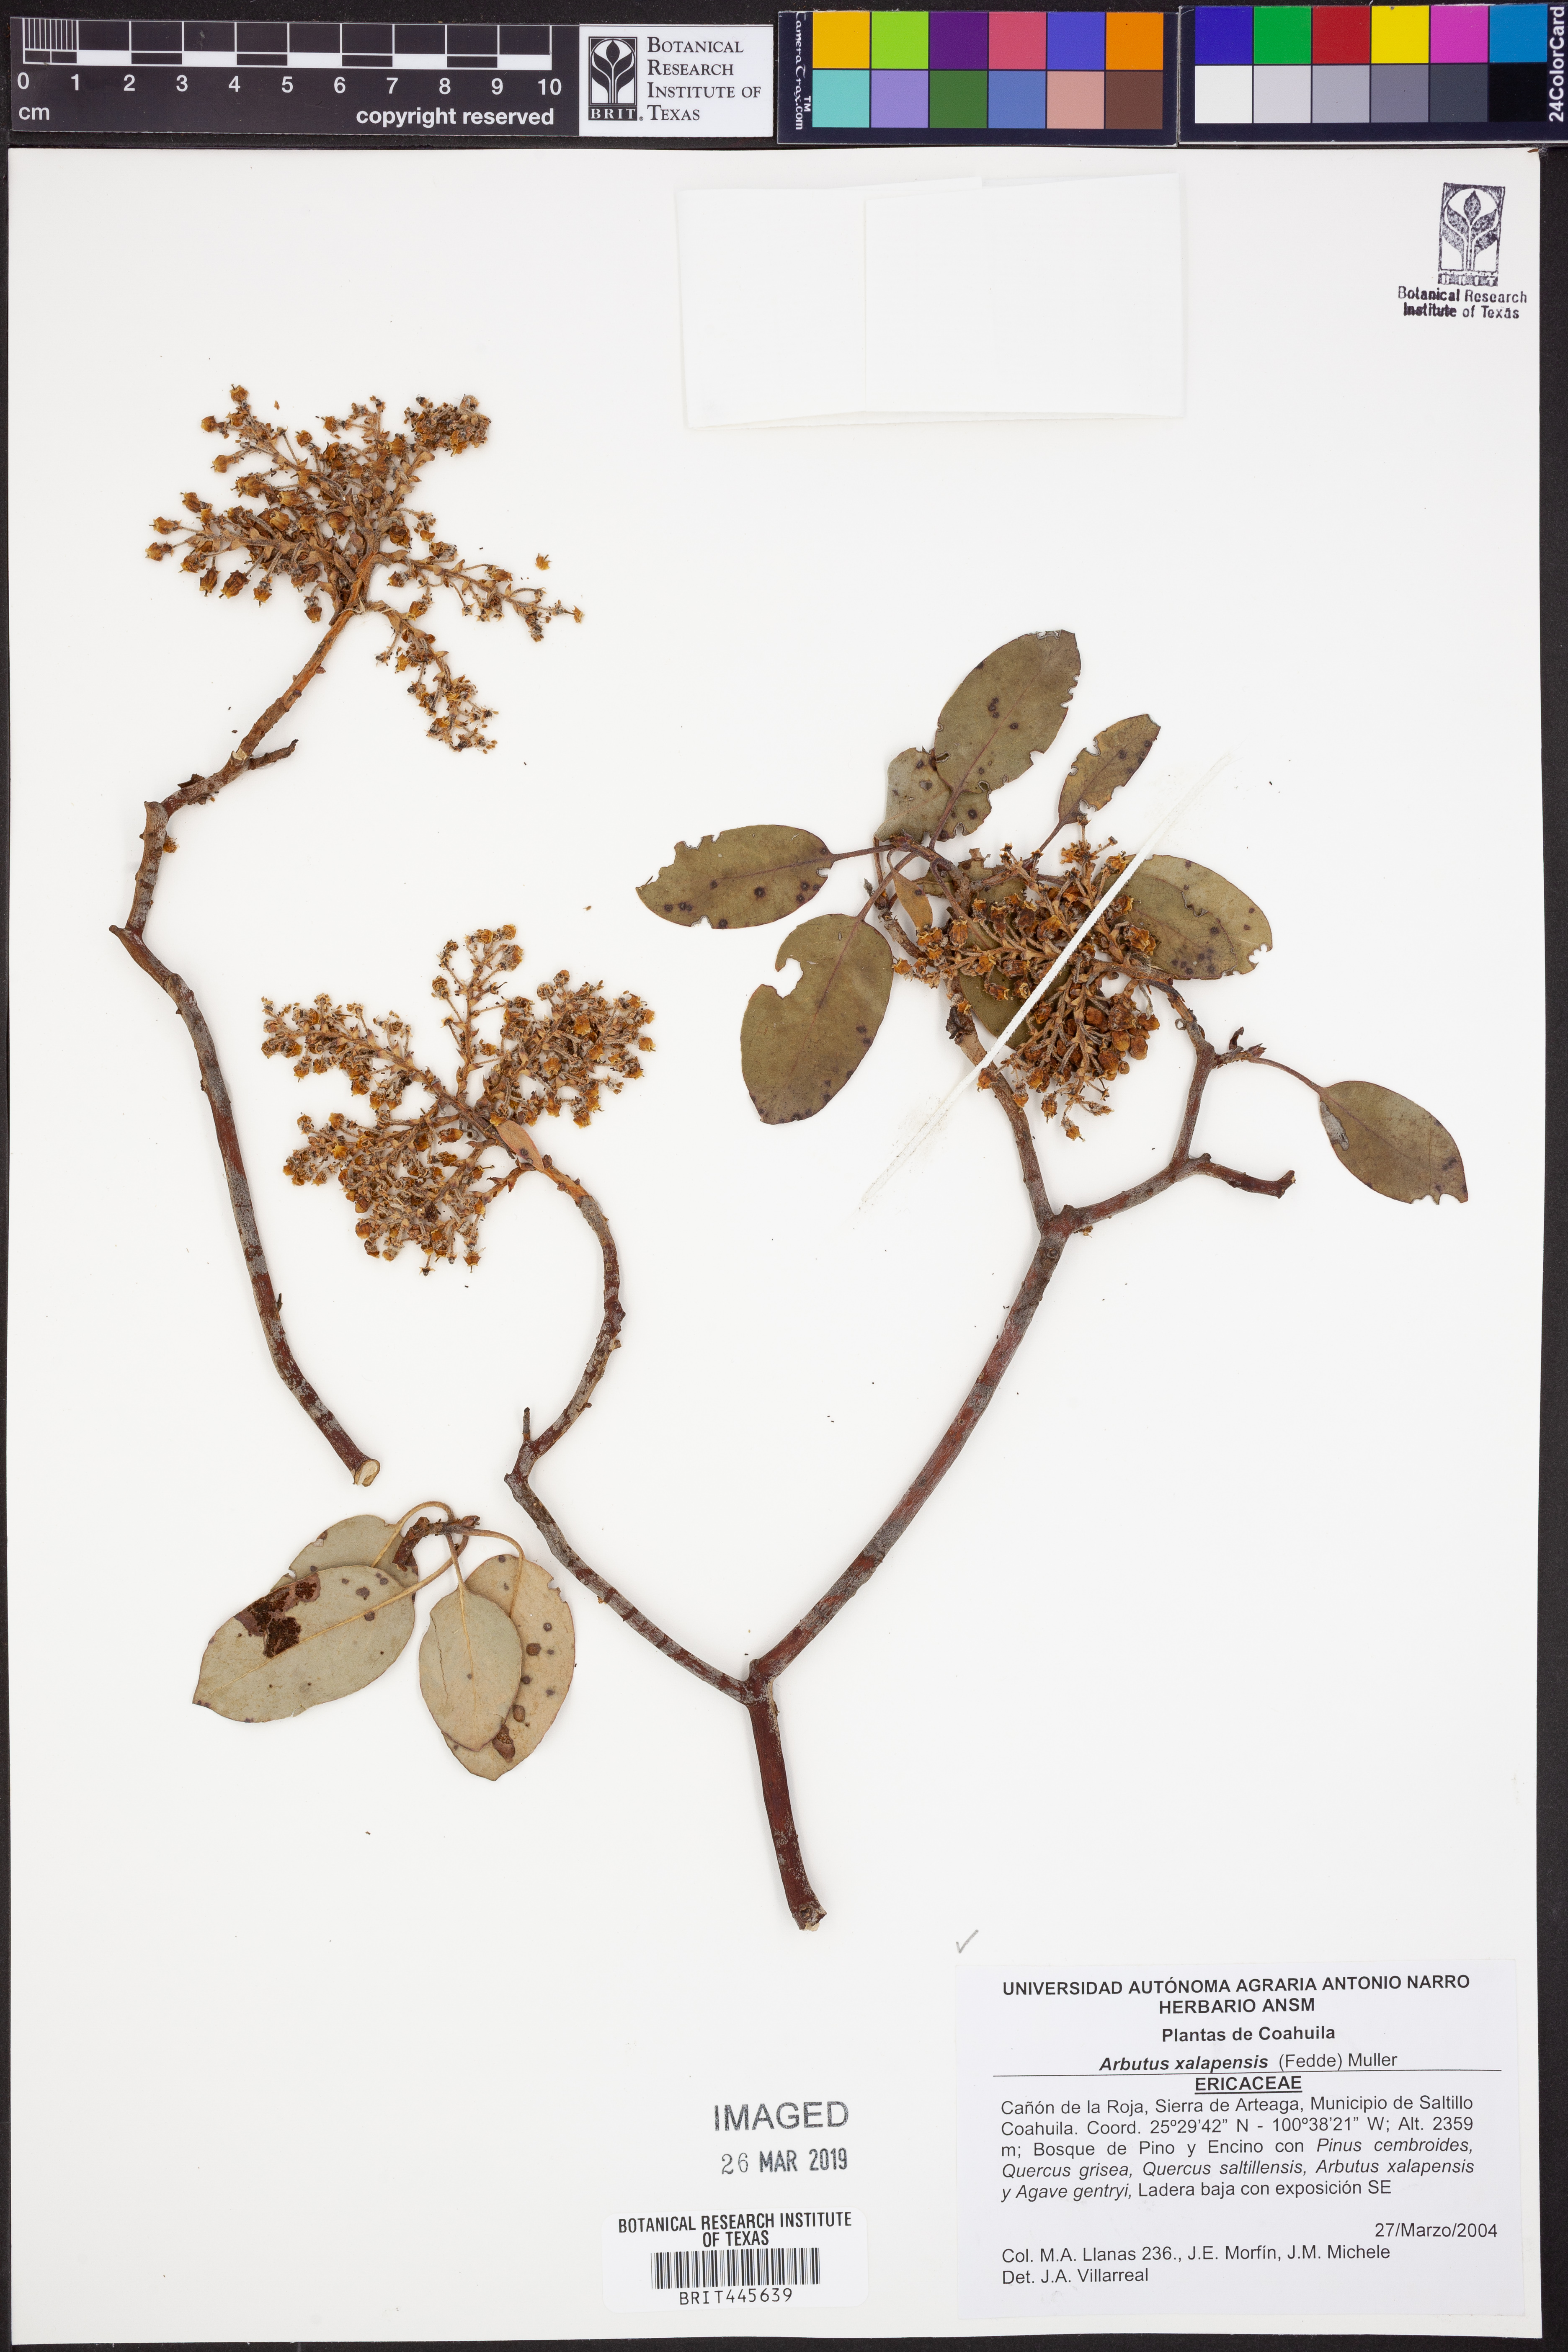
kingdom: Plantae
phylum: Tracheophyta
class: Magnoliopsida
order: Ericales
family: Ericaceae
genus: Arbutus
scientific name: Arbutus xalapensis
